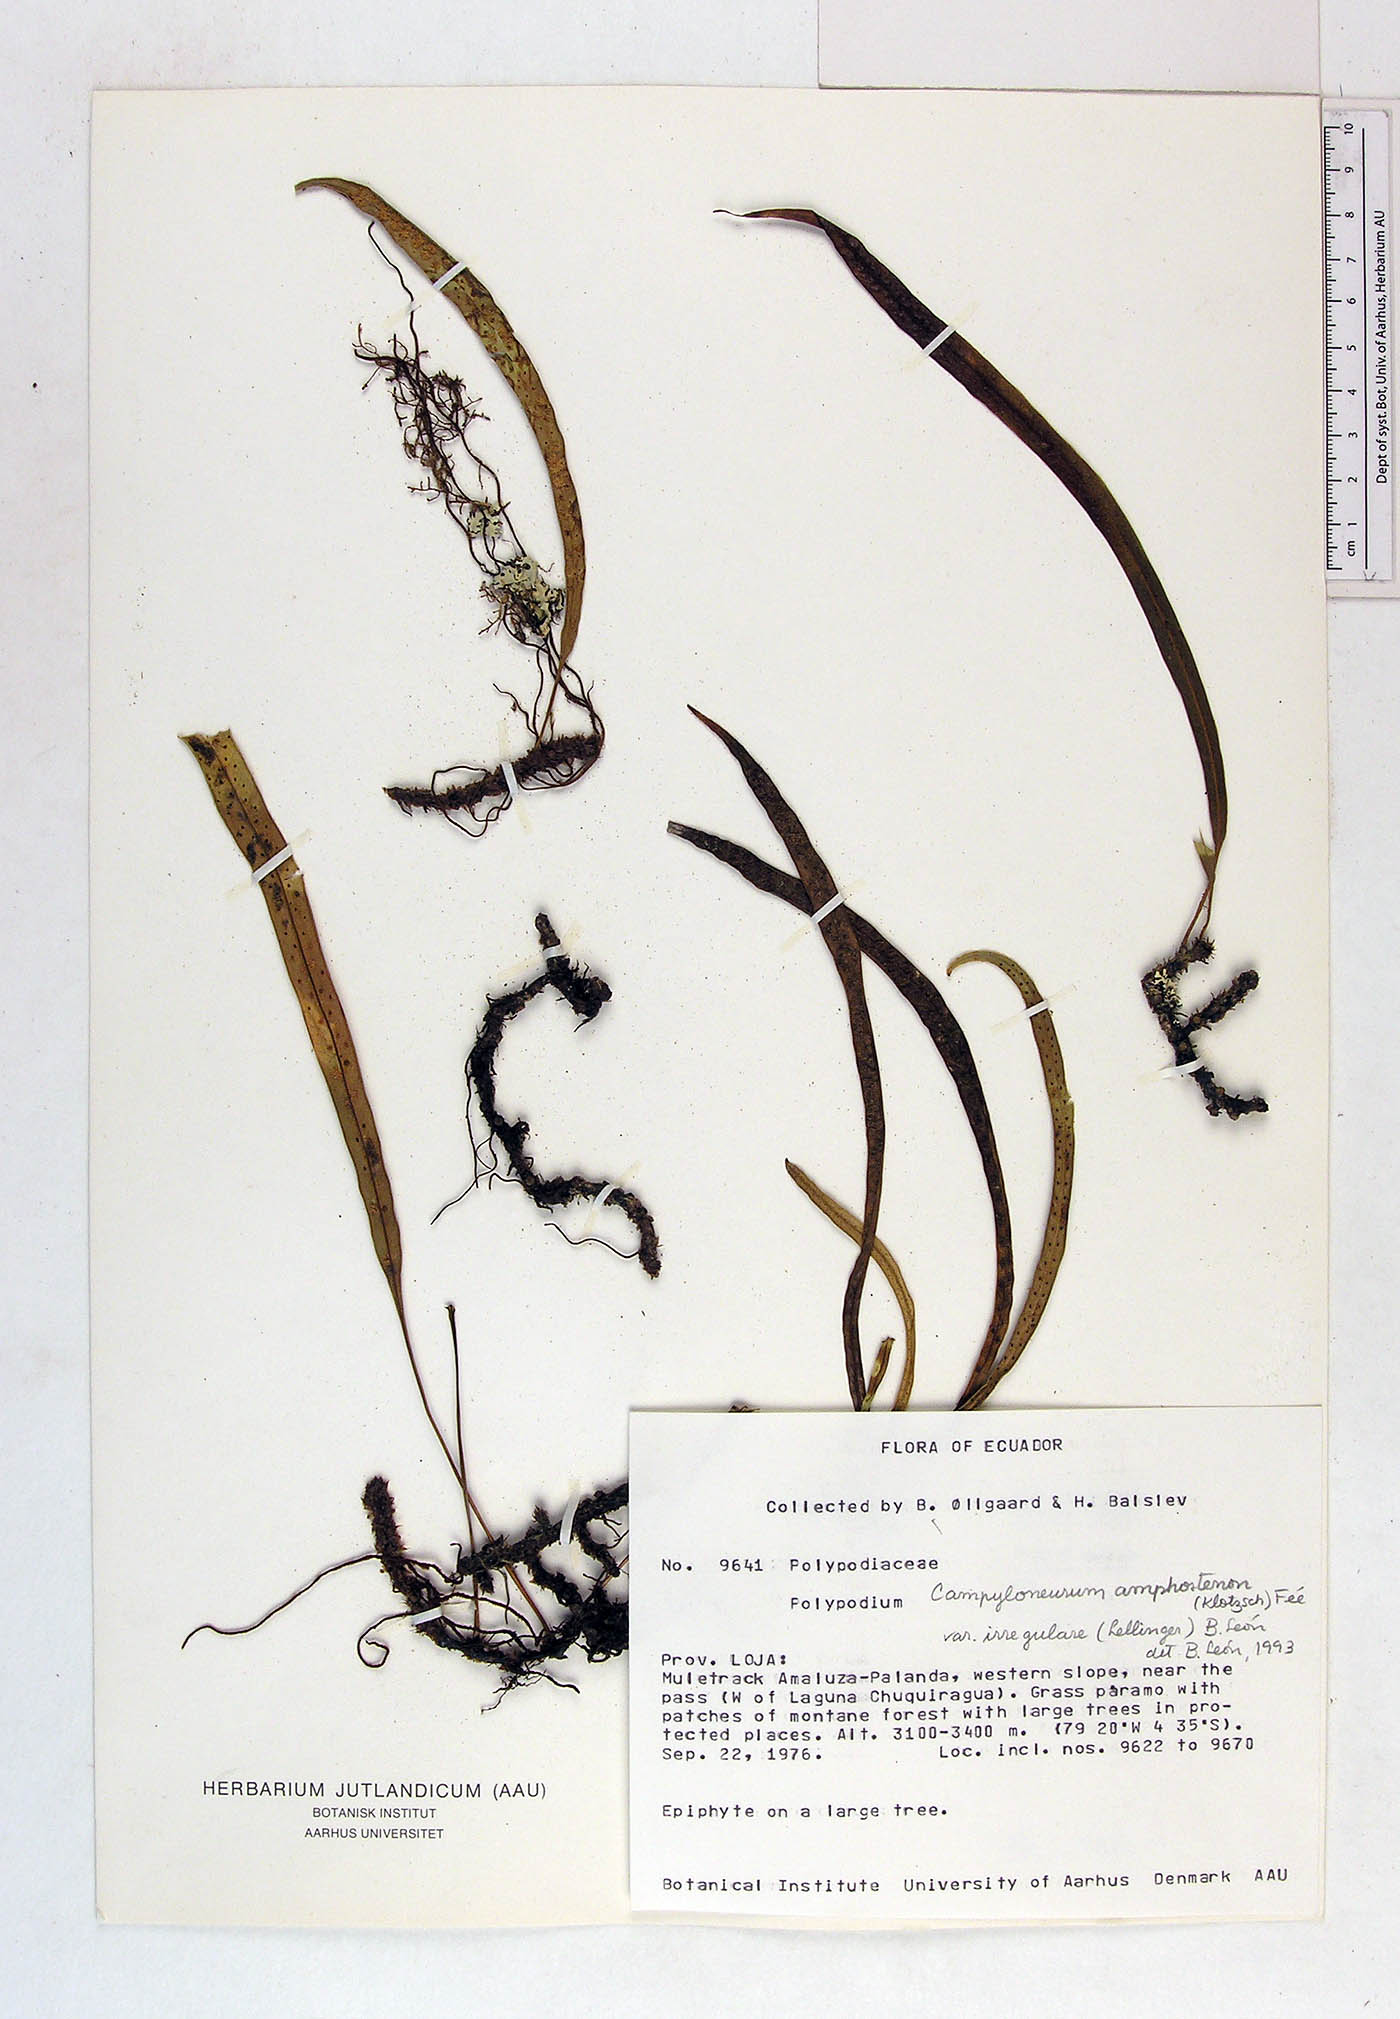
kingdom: Plantae
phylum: Tracheophyta
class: Polypodiopsida
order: Polypodiales
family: Polypodiaceae
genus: Campyloneurum
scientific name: Campyloneurum angustifolium
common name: Narrow-leaf strap fern
